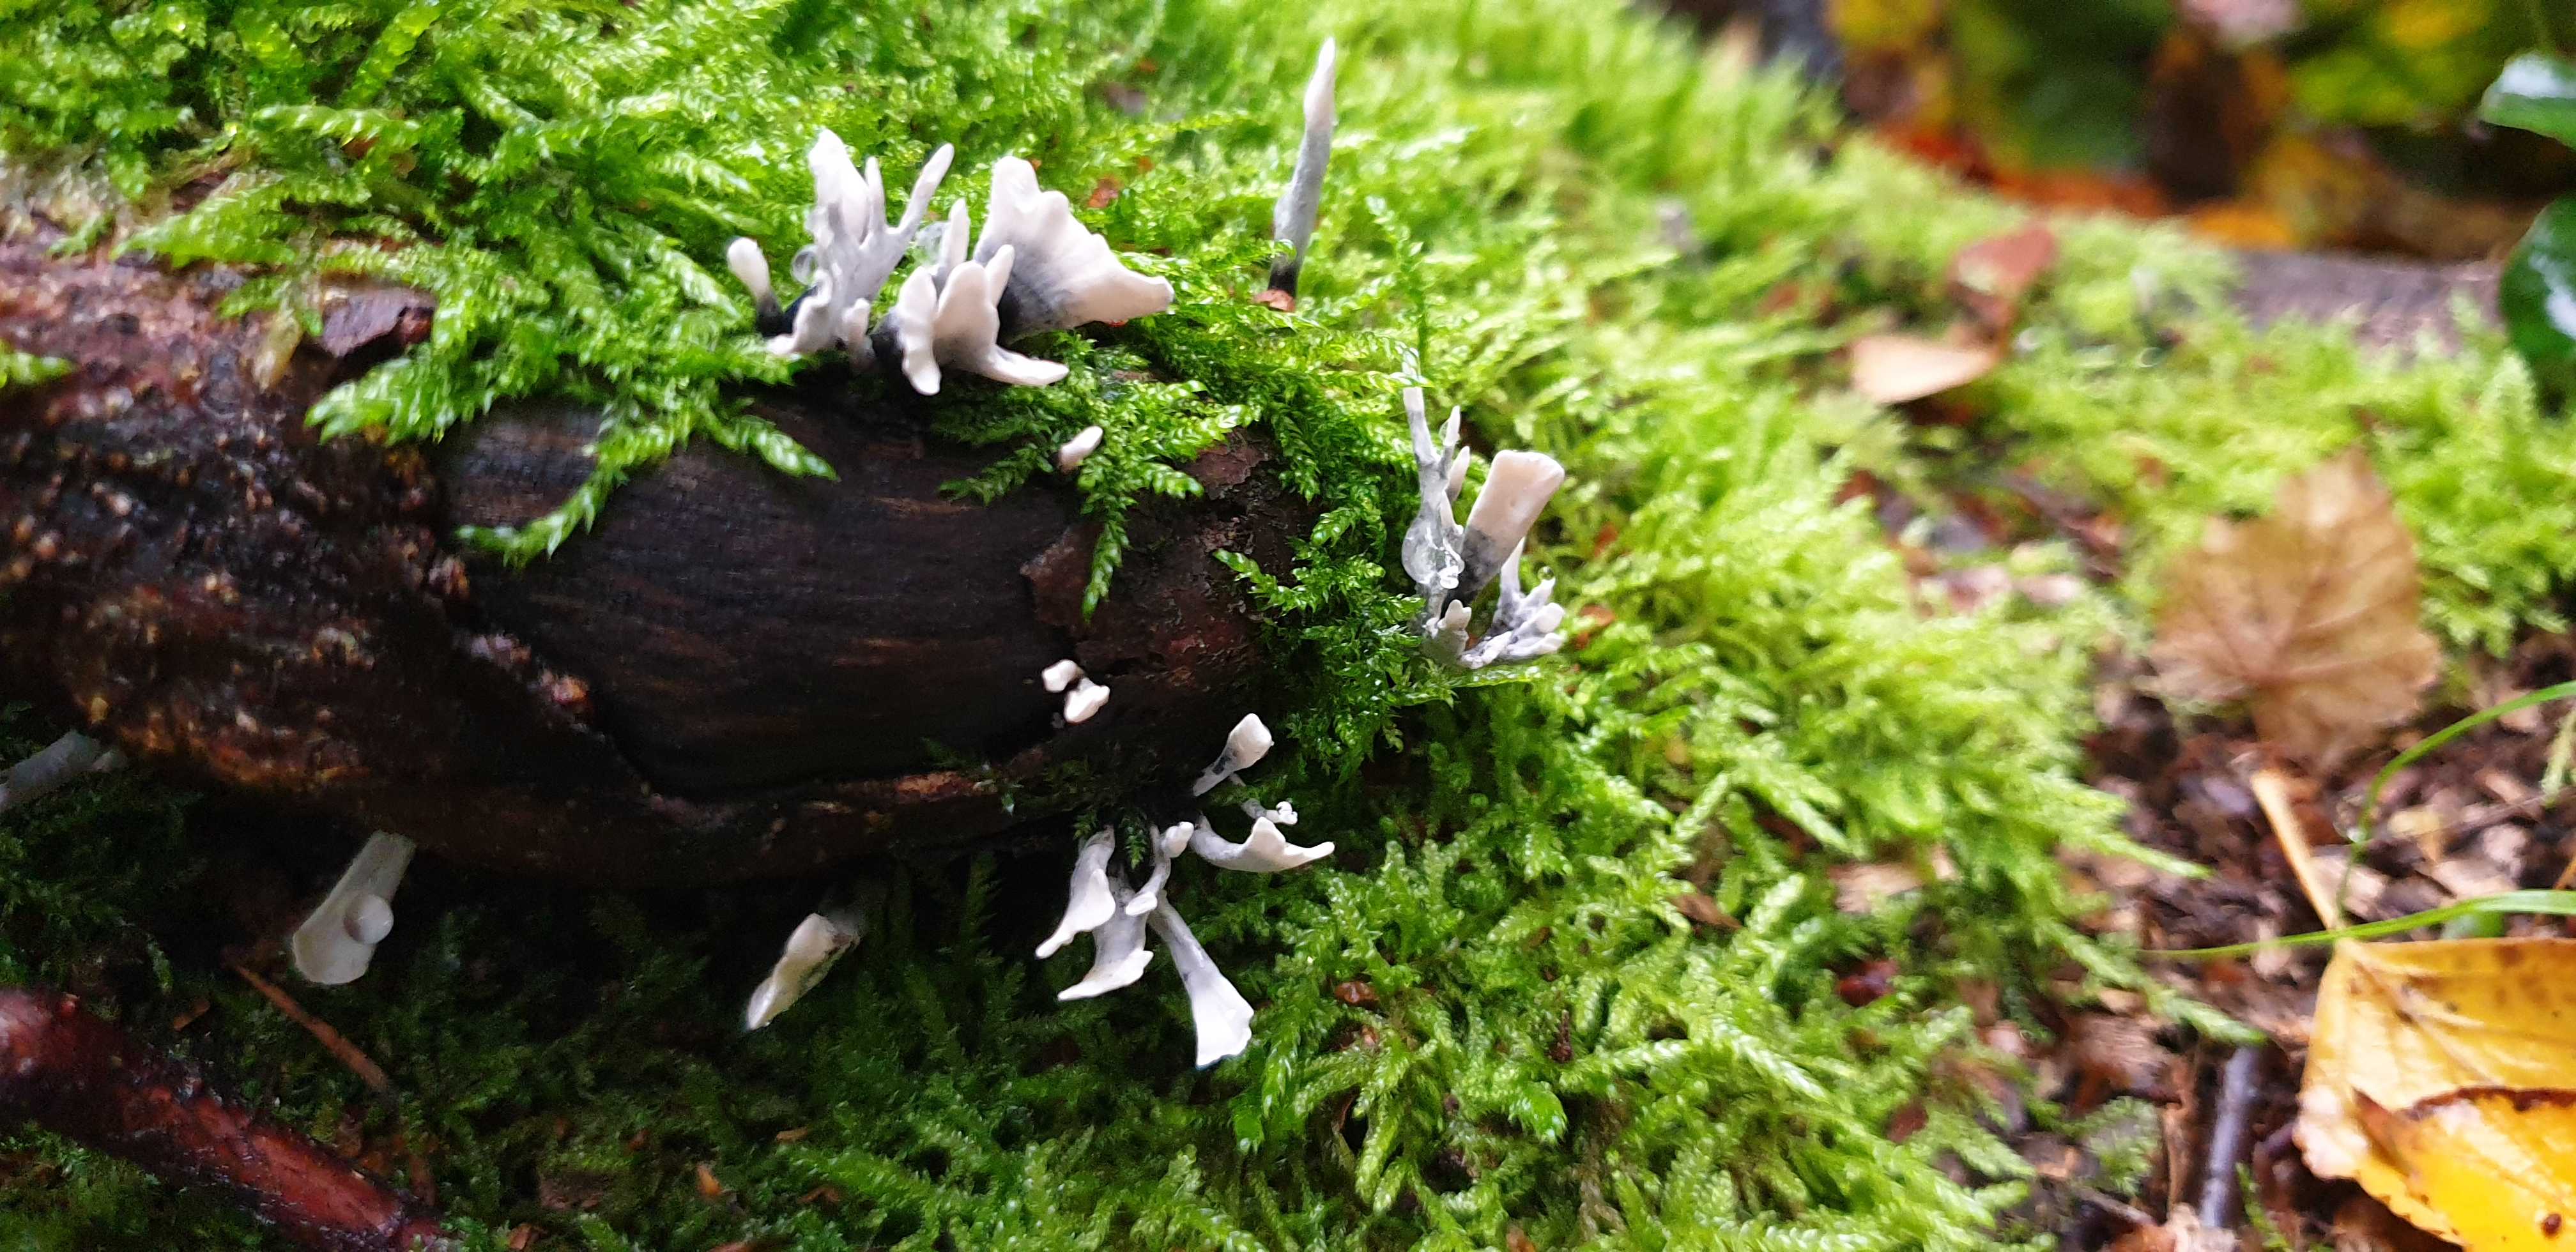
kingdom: Fungi
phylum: Ascomycota
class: Sordariomycetes
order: Xylariales
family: Xylariaceae
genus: Xylaria
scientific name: Xylaria hypoxylon
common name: grenet stødsvamp
